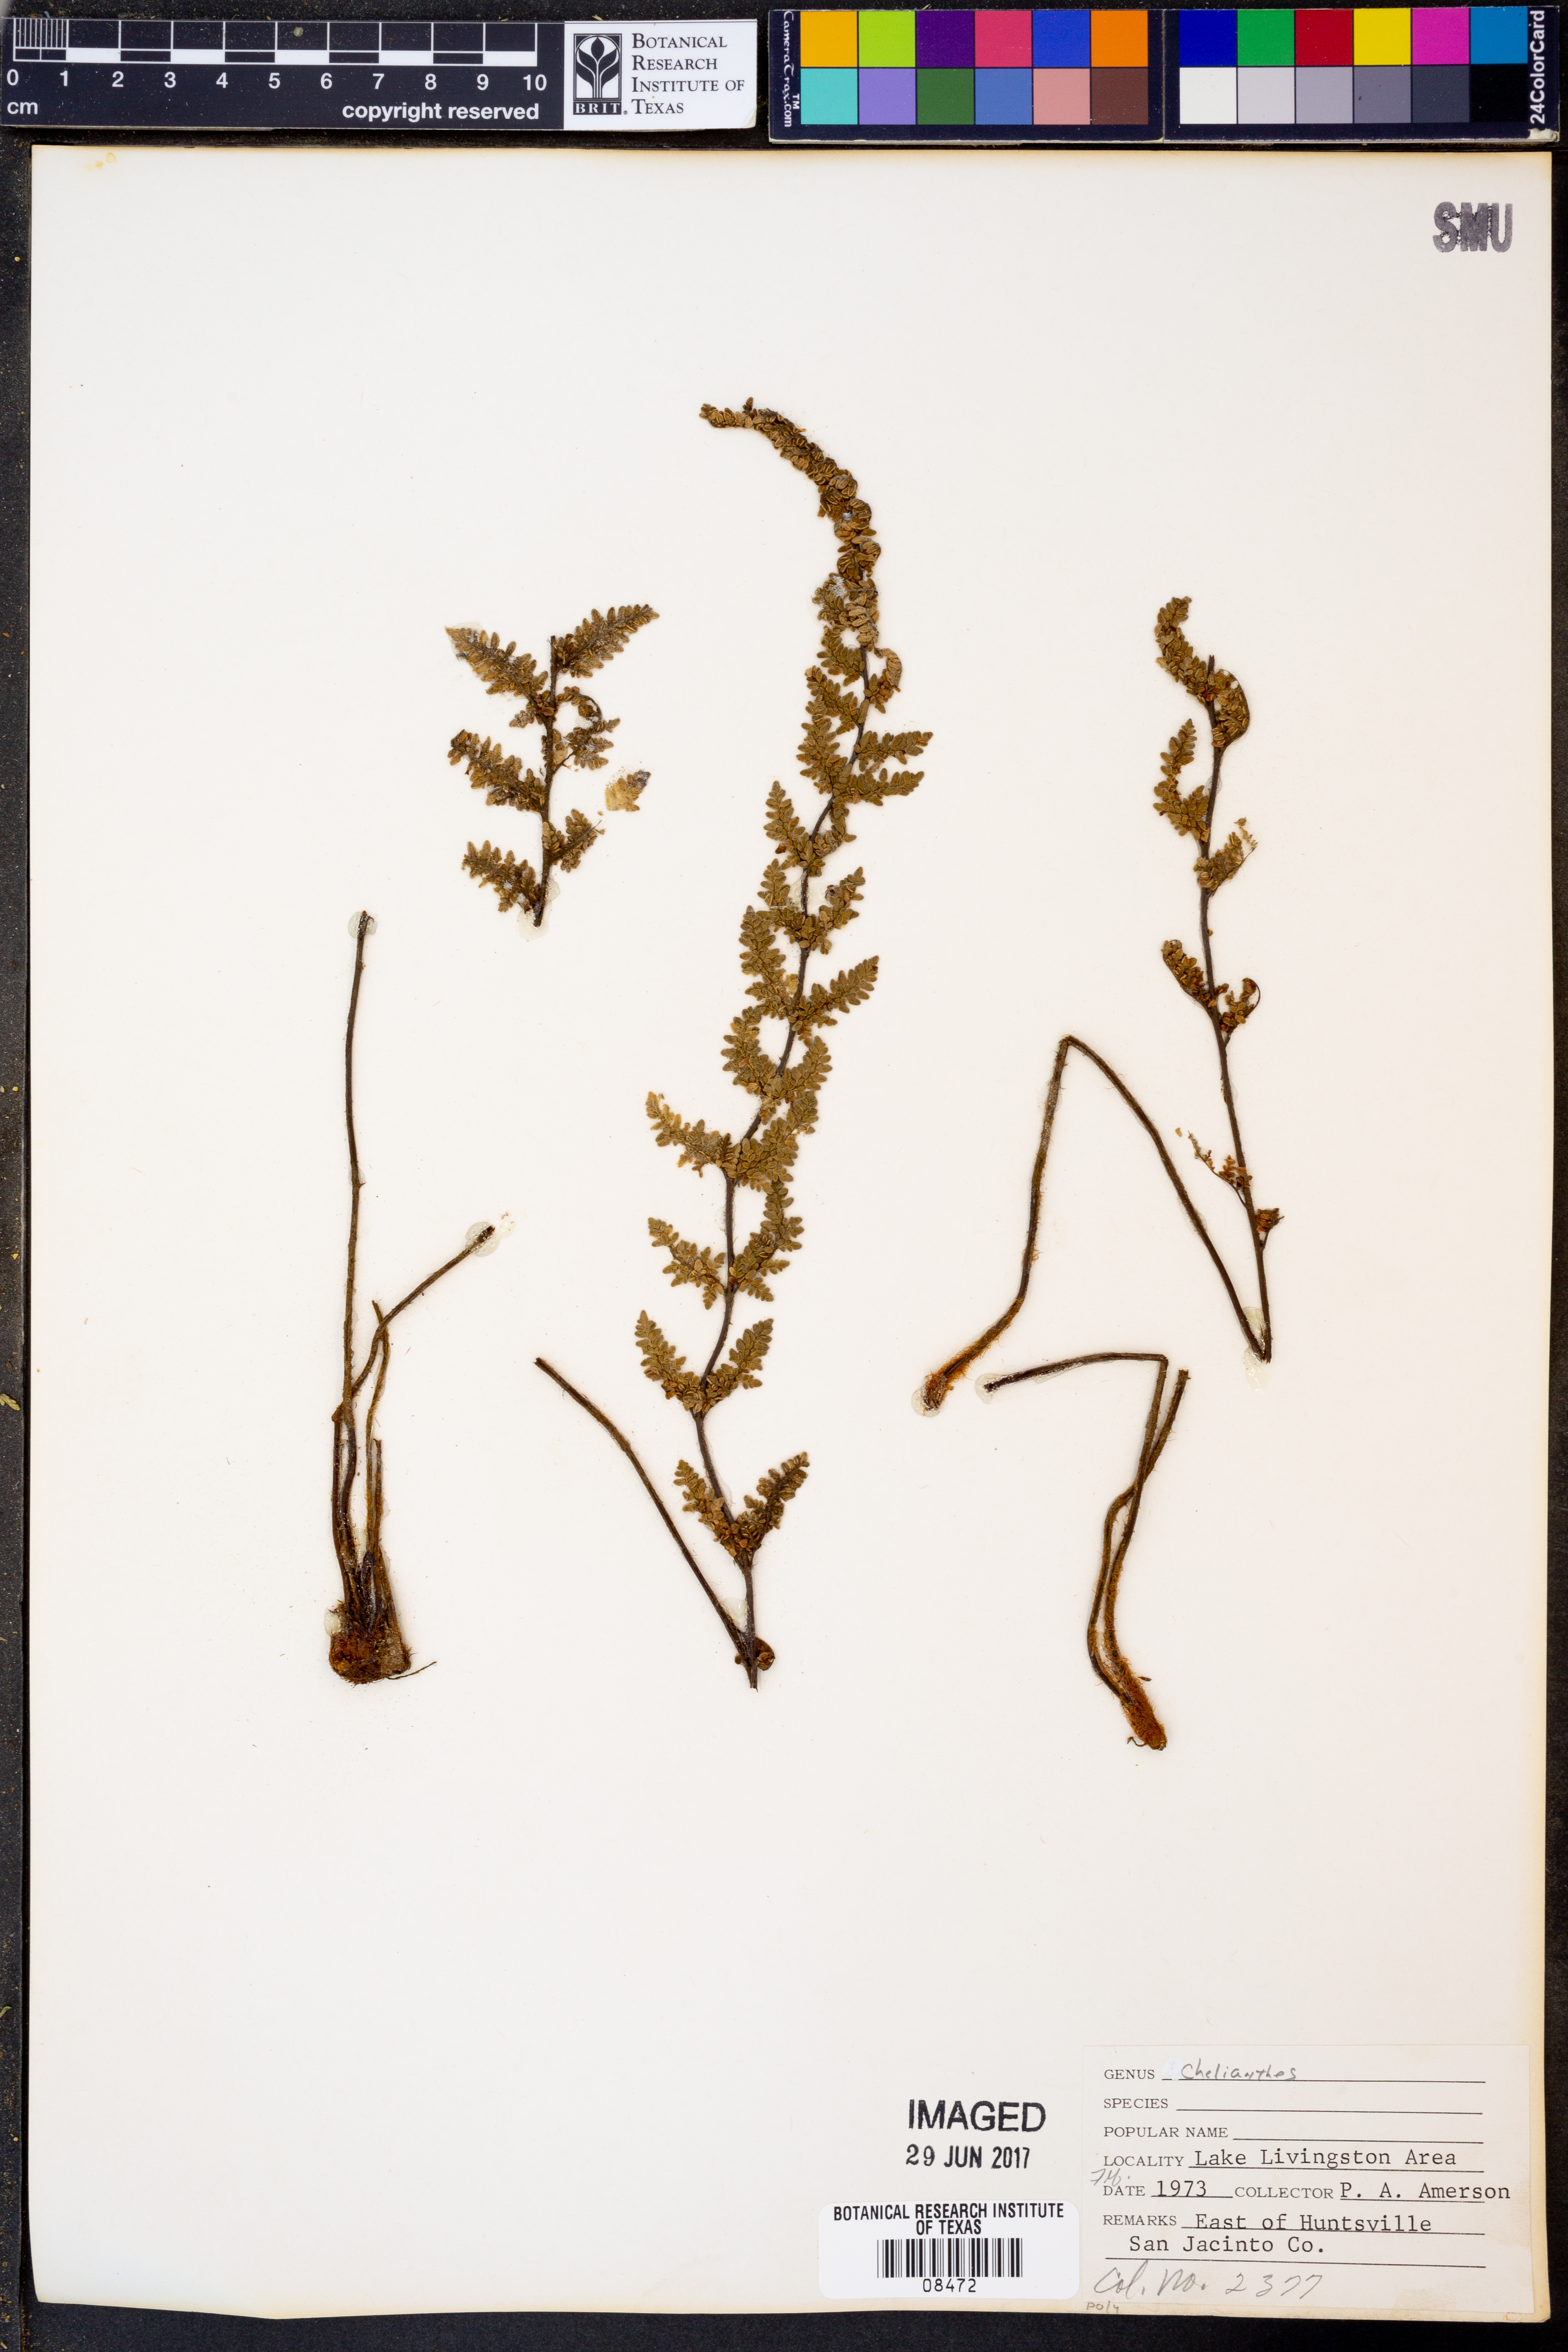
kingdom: Plantae
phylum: Tracheophyta
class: Polypodiopsida
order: Polypodiales
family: Pteridaceae
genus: Cheilanthes
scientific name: Cheilanthes
